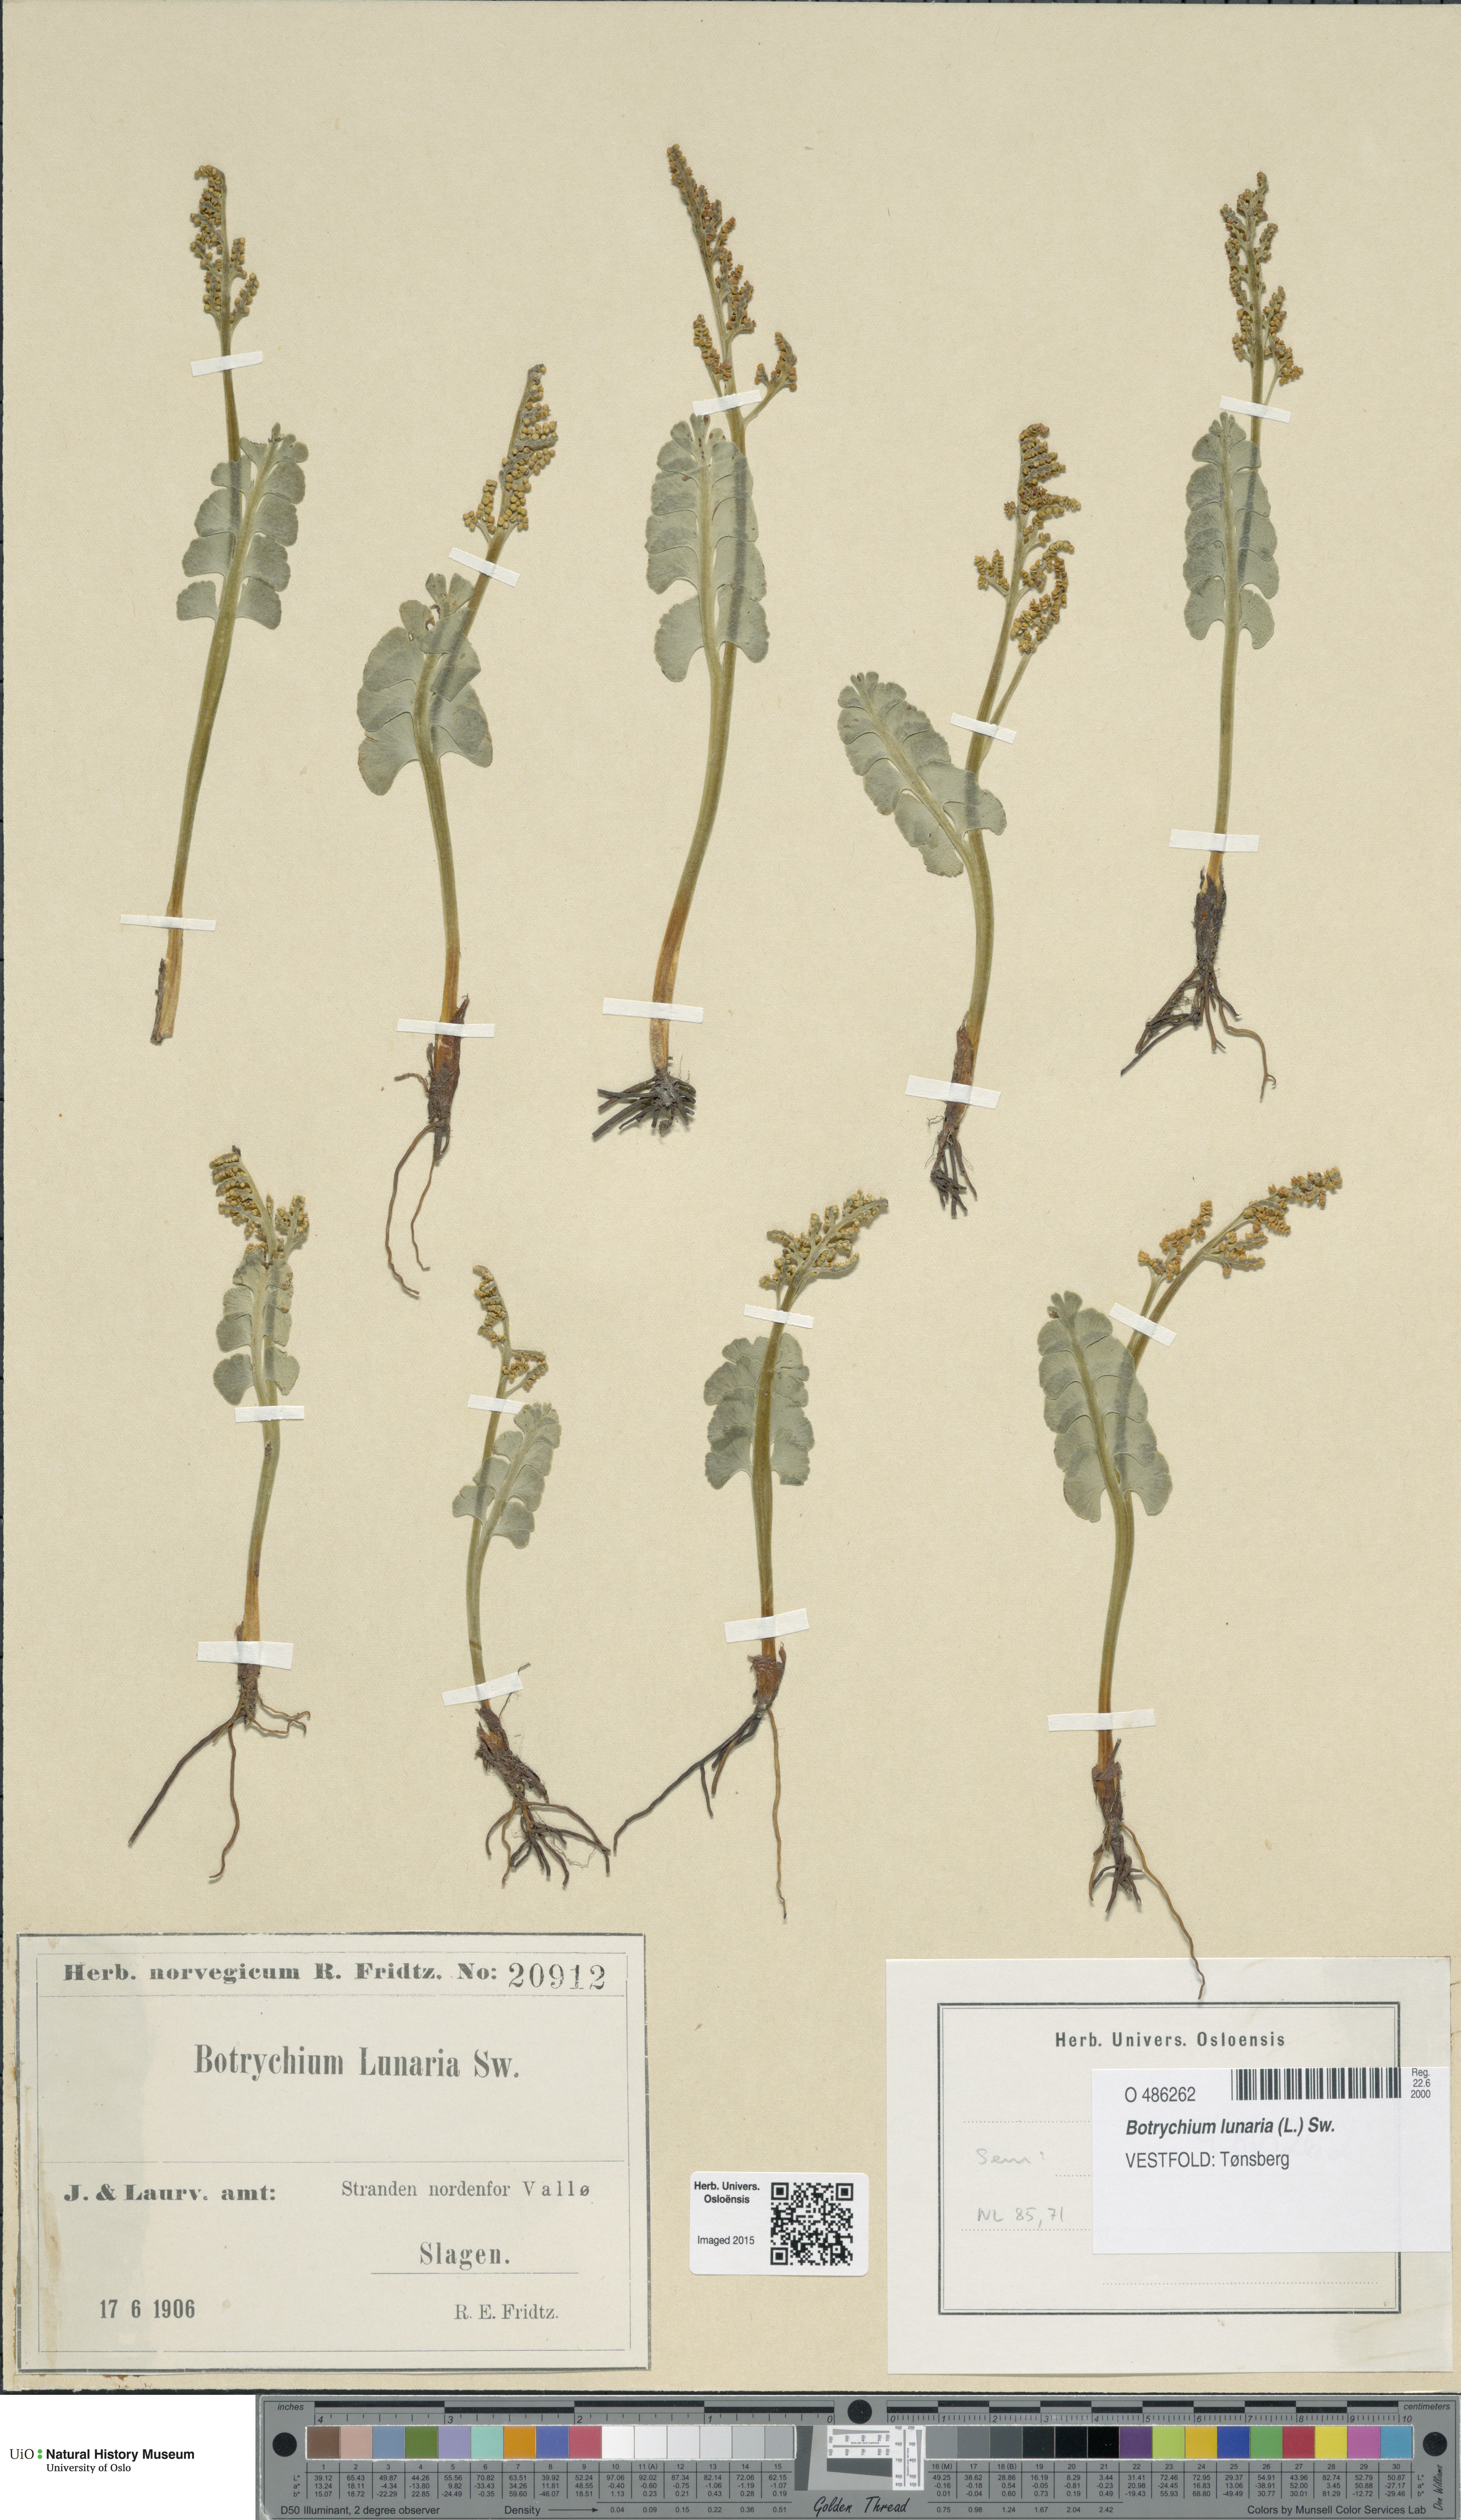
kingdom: Plantae
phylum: Tracheophyta
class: Polypodiopsida
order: Ophioglossales
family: Ophioglossaceae
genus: Botrychium
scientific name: Botrychium lunaria
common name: Moonwort
